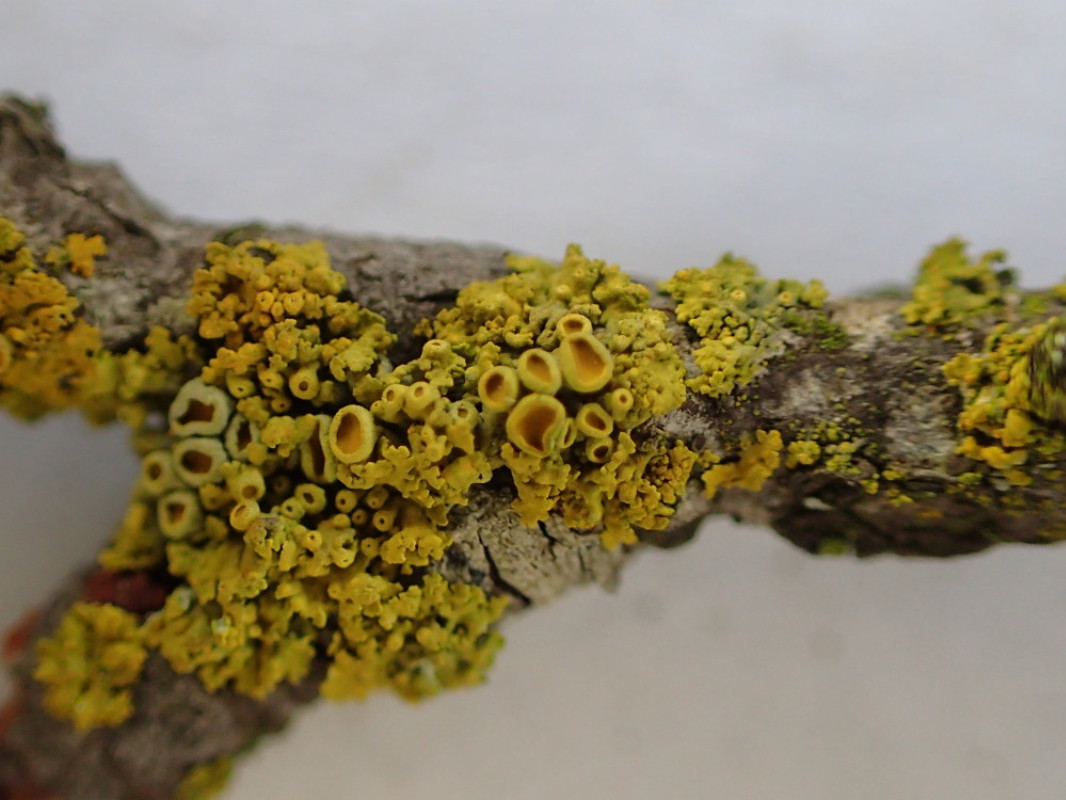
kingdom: Fungi
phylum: Ascomycota
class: Lecanoromycetes
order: Teloschistales
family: Teloschistaceae
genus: Polycauliona
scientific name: Polycauliona polycarpa
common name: mangefrugtet orangelav
